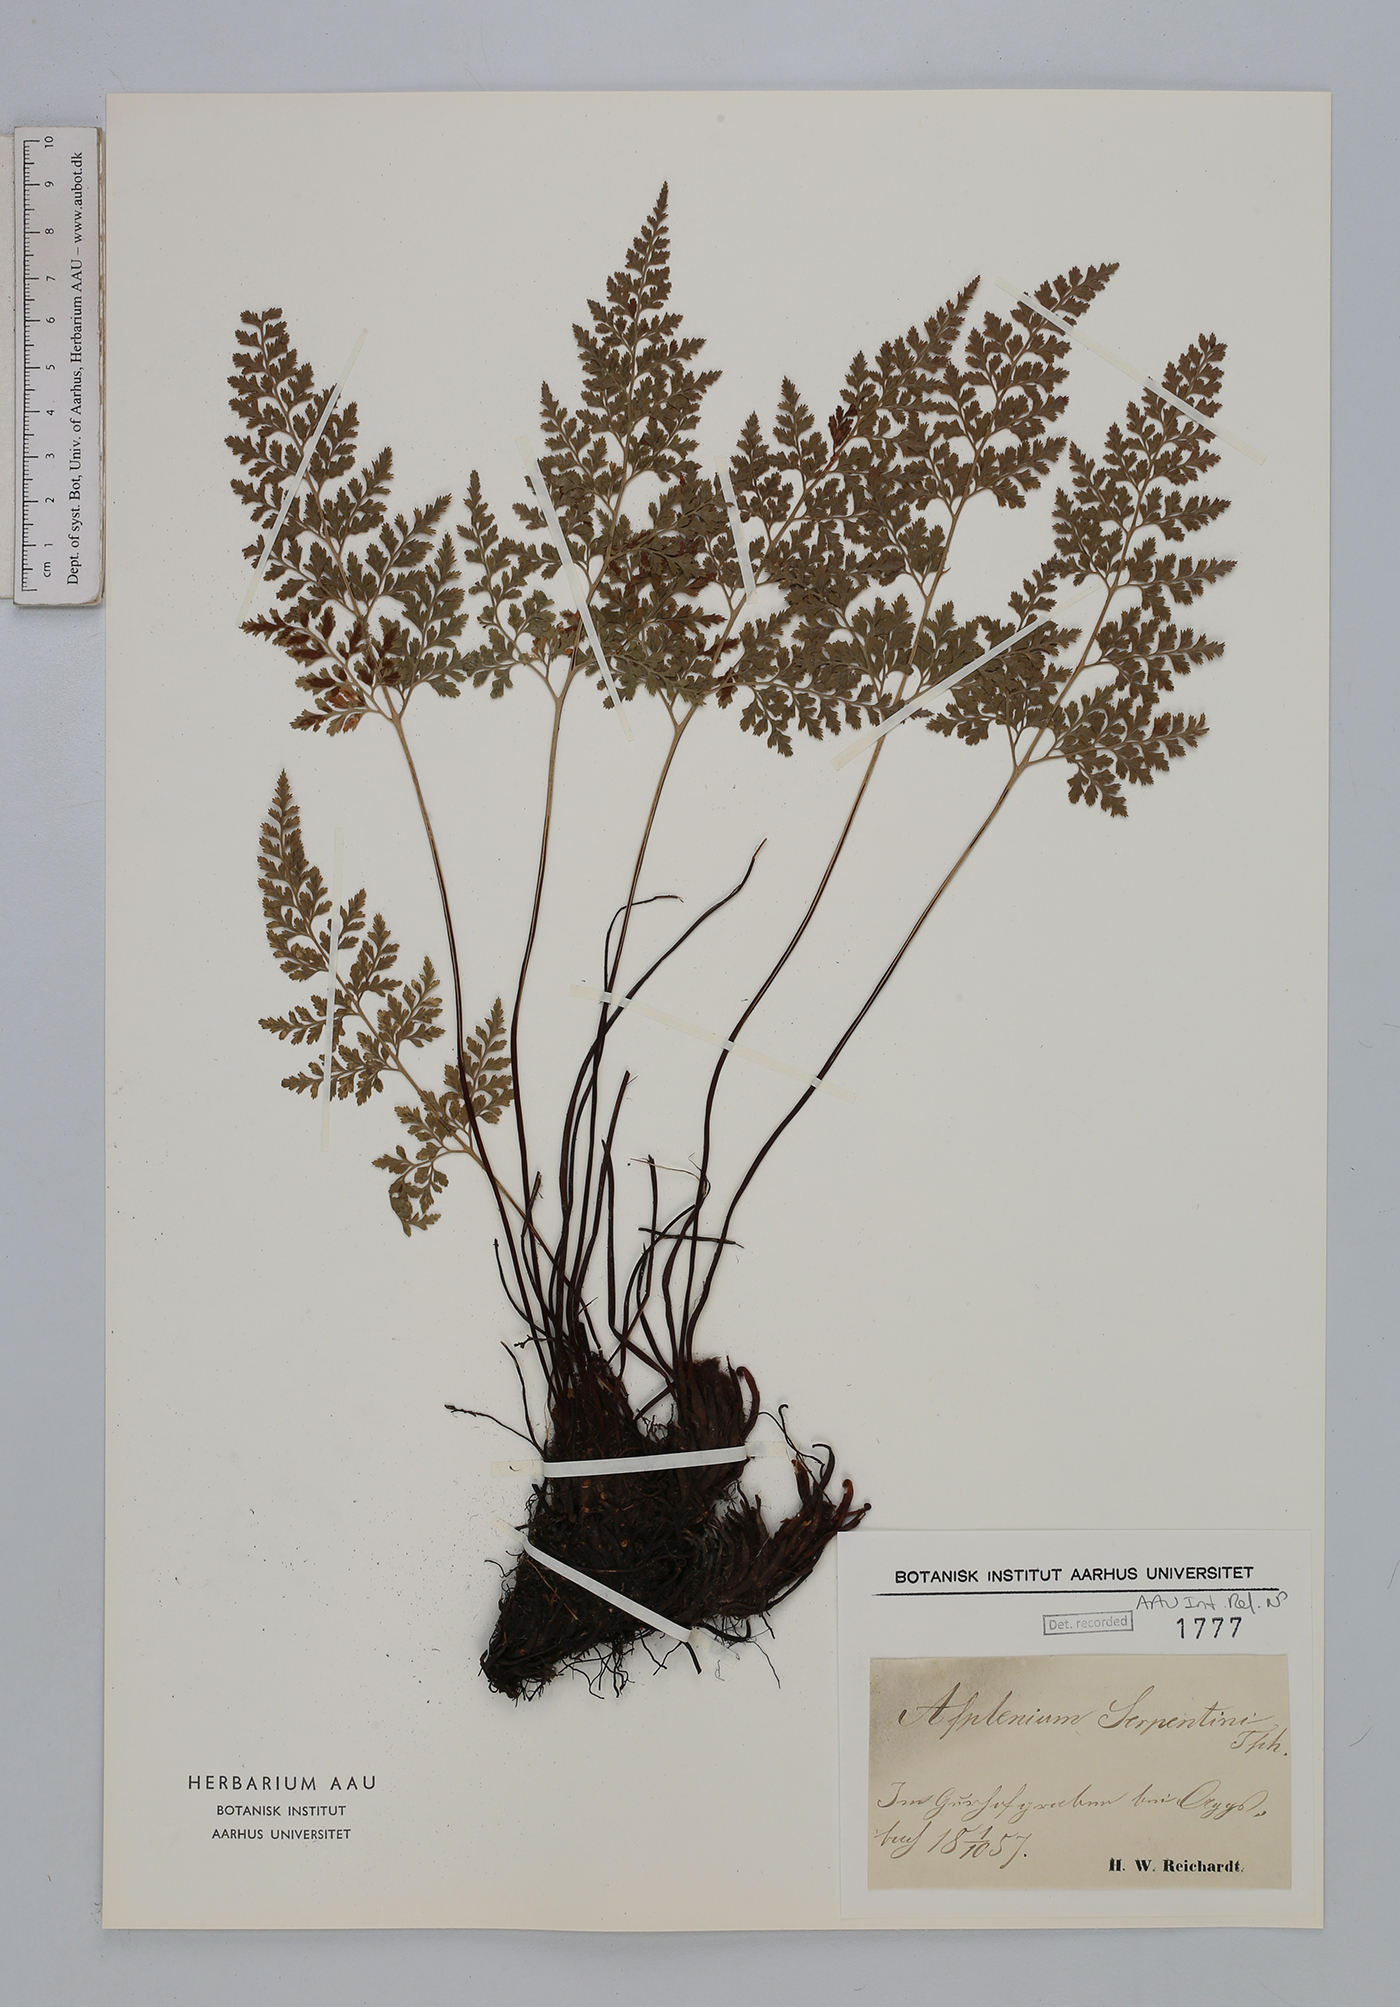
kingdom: Plantae
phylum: Tracheophyta
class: Polypodiopsida
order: Polypodiales
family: Aspleniaceae
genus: Asplenium
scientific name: Asplenium cuneifolium
